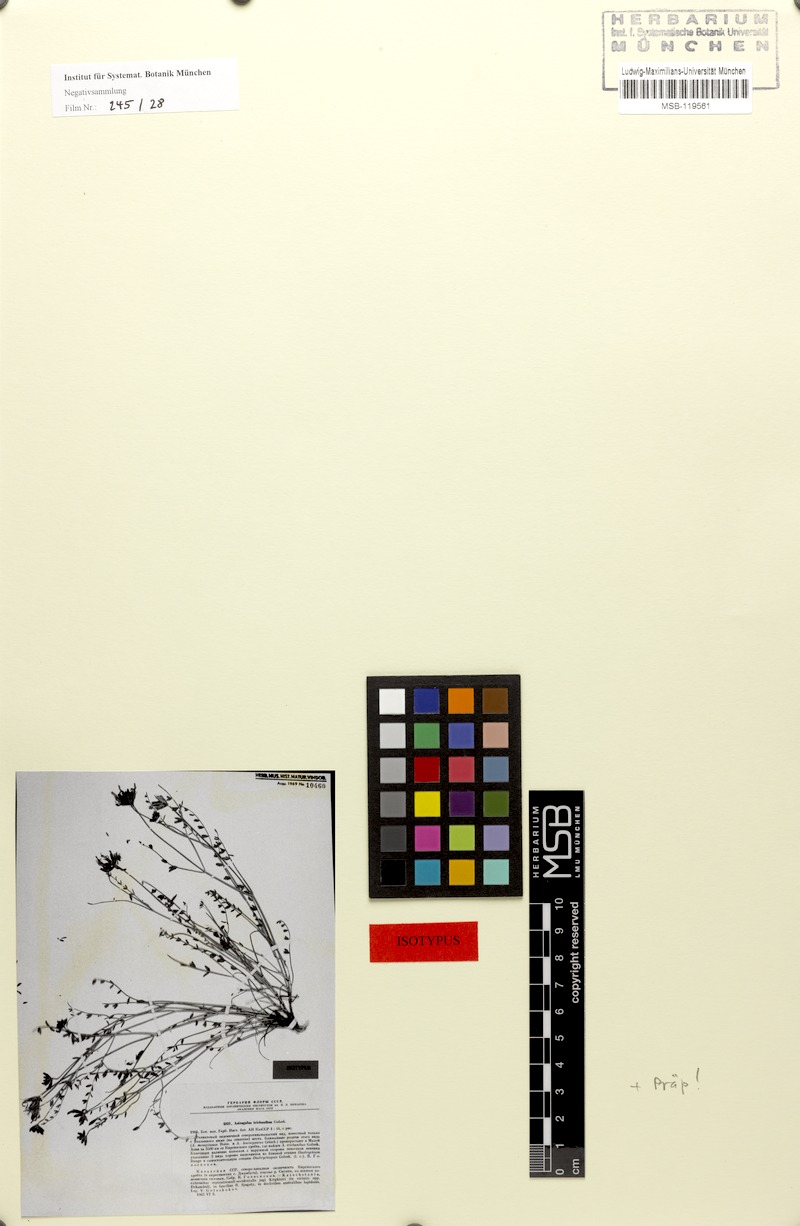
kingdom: Plantae
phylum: Tracheophyta
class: Magnoliopsida
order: Fabales
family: Fabaceae
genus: Astragalus
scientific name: Astragalus trichanthus
